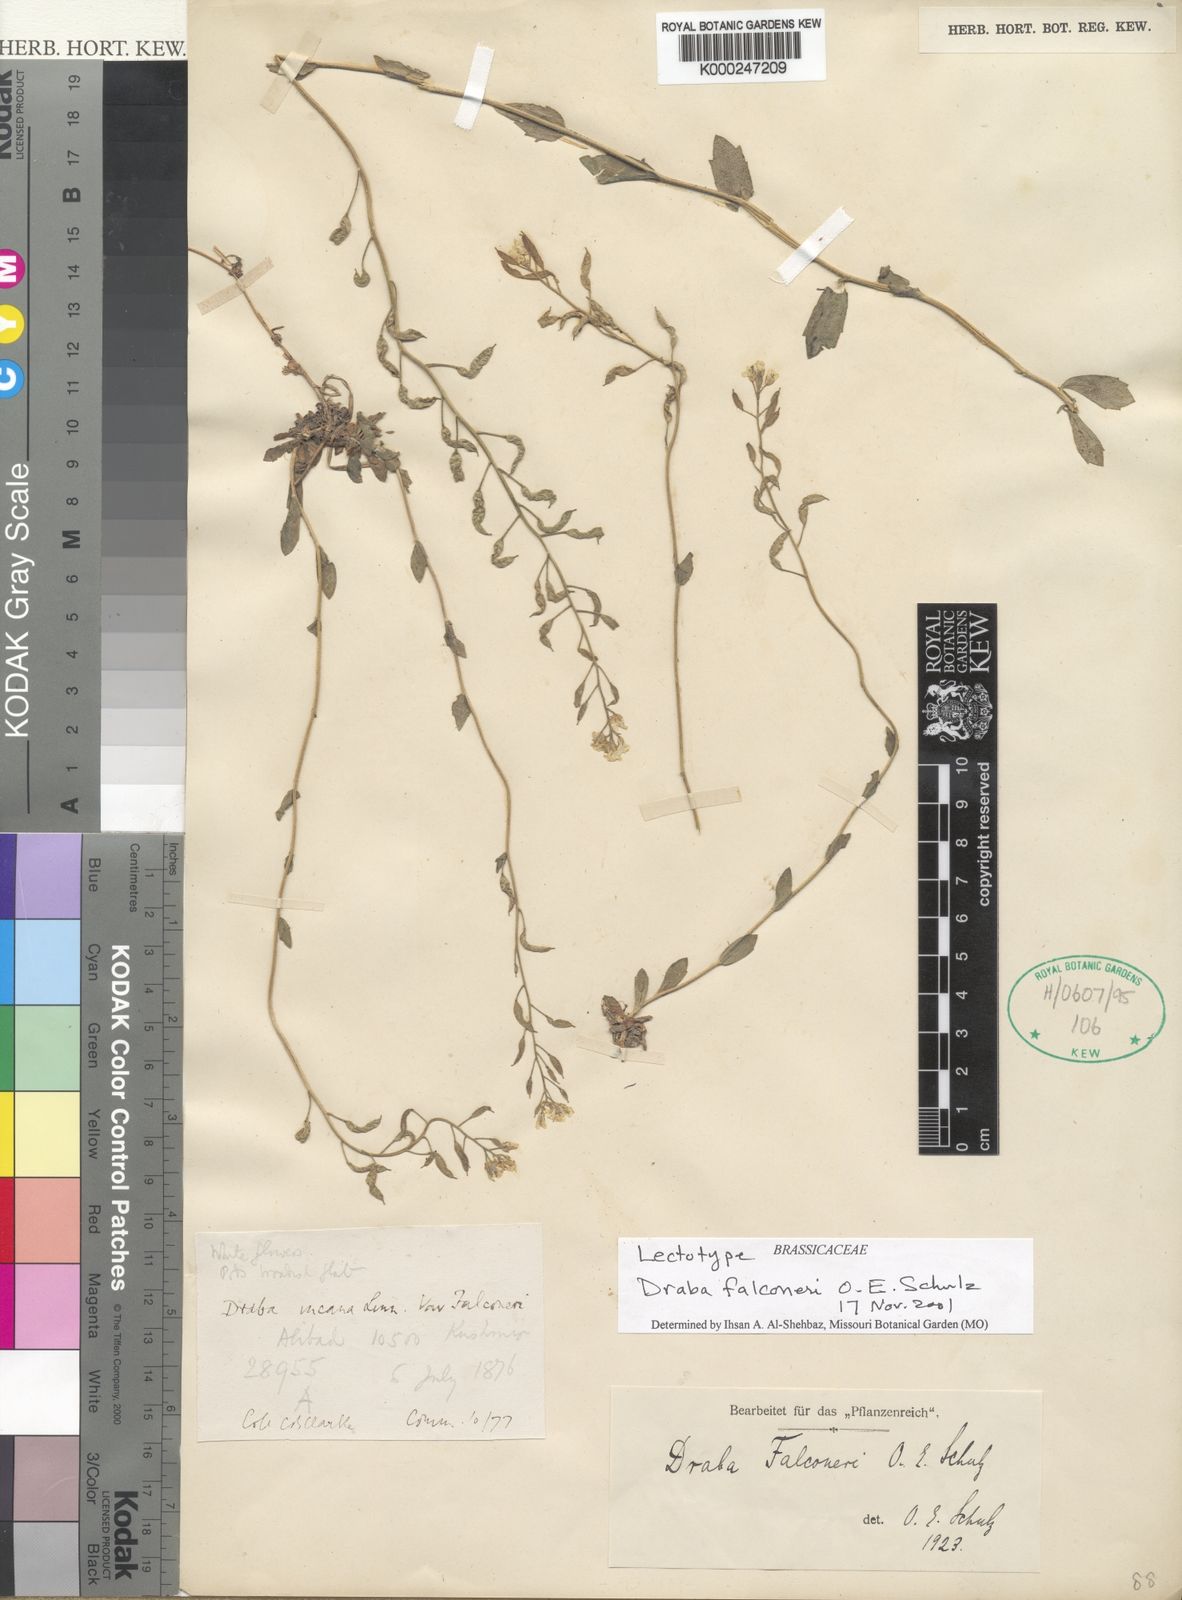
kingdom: Plantae
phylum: Tracheophyta
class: Magnoliopsida
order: Brassicales
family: Brassicaceae
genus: Draba
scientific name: Draba falconeri
